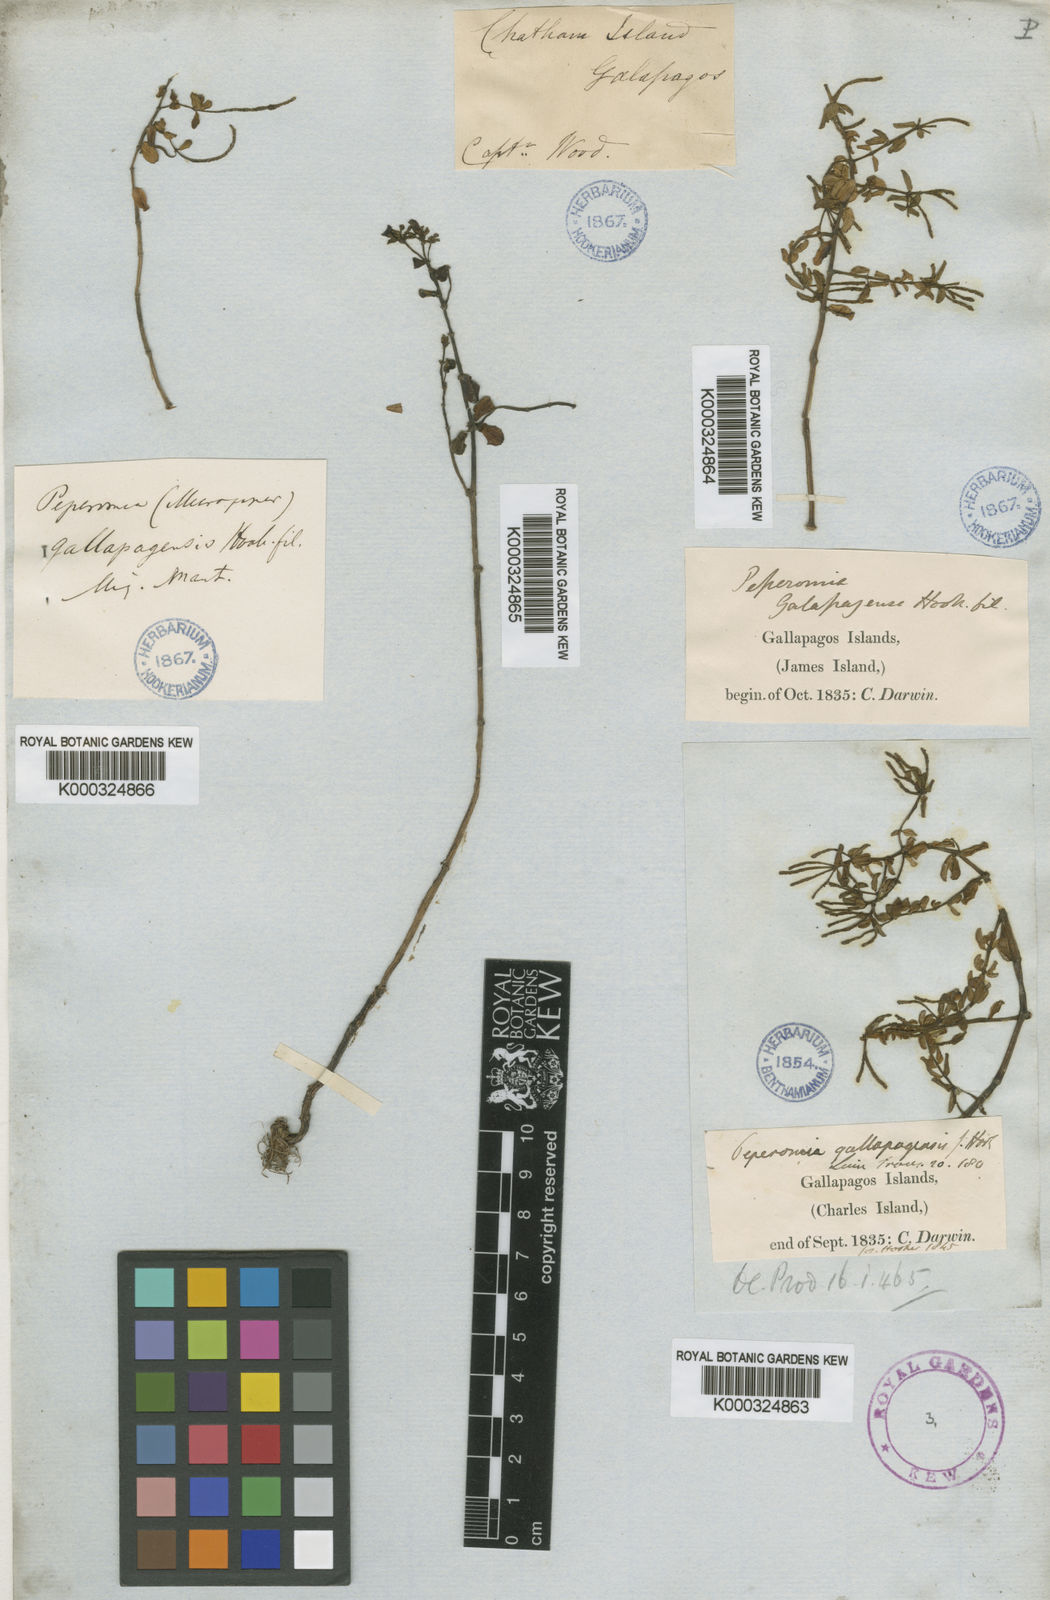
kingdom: Plantae
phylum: Tracheophyta
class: Magnoliopsida
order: Piperales
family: Piperaceae
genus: Peperomia
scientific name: Peperomia inaequalifolia
